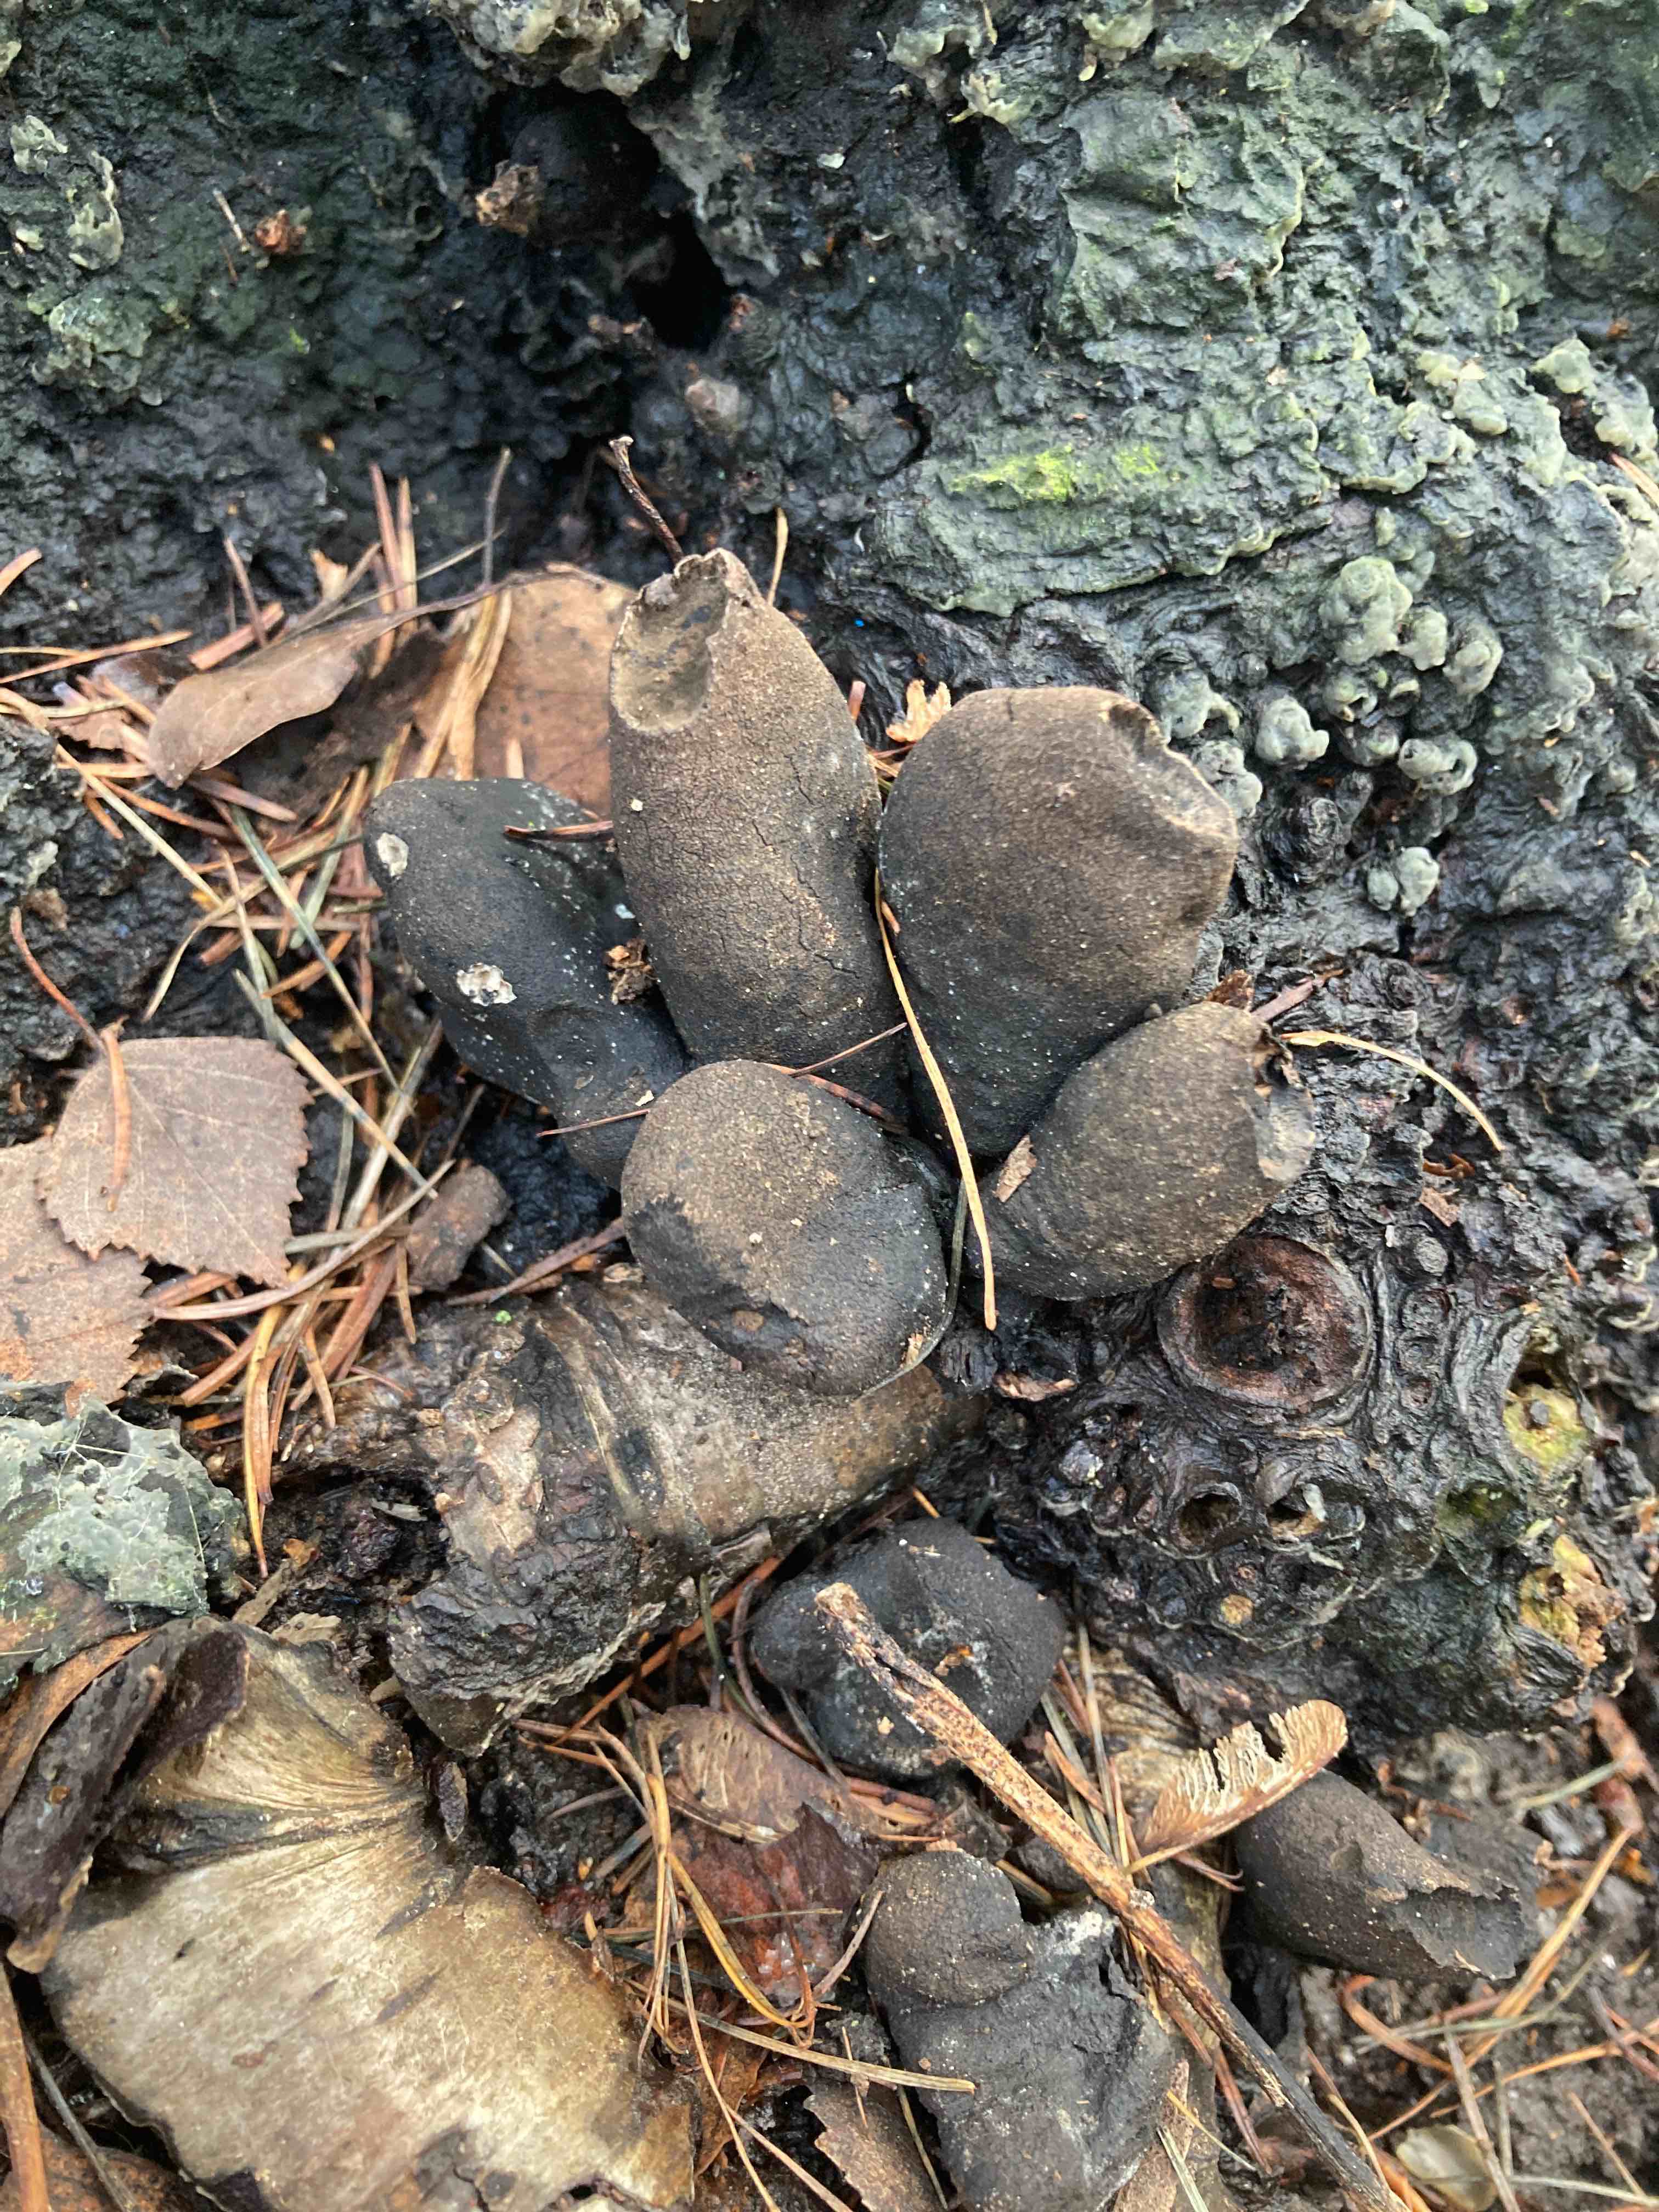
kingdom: Fungi
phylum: Ascomycota
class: Sordariomycetes
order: Xylariales
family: Xylariaceae
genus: Xylaria
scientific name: Xylaria polymorpha
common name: kølle-stødsvamp
